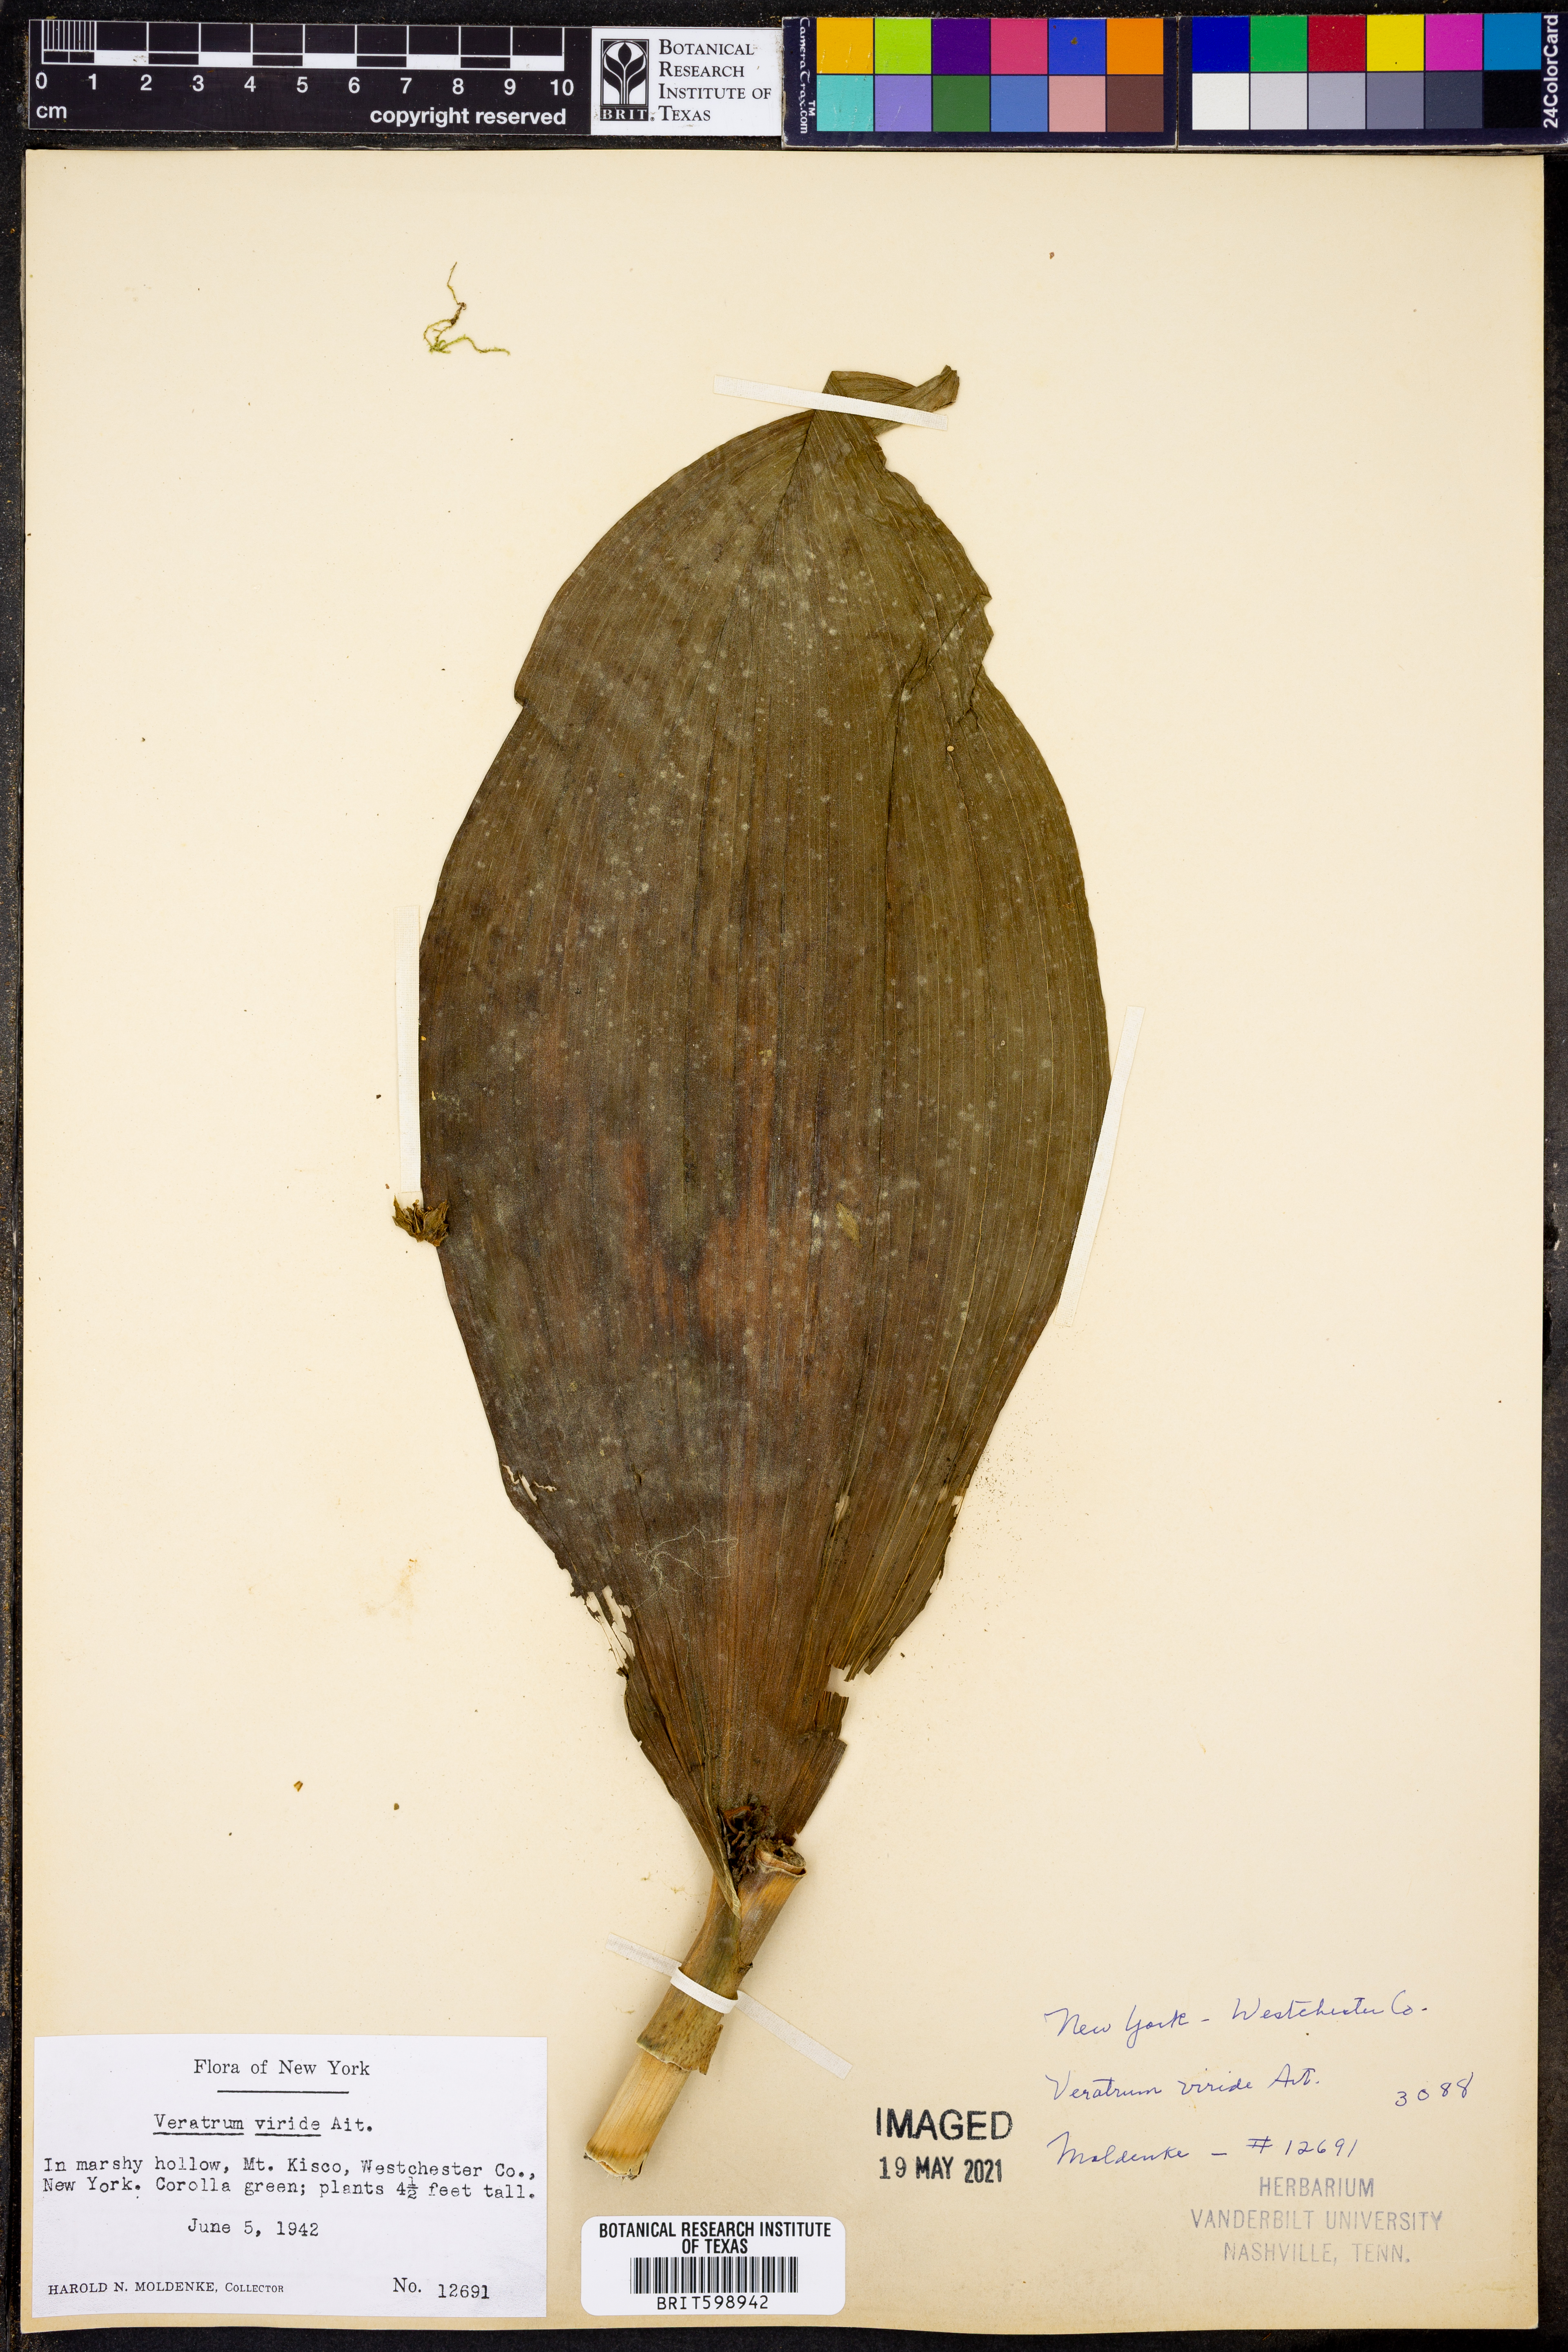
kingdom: Plantae
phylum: Tracheophyta
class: Liliopsida
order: Liliales
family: Melanthiaceae
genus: Veratrum
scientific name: Veratrum viride
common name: American false hellebore
